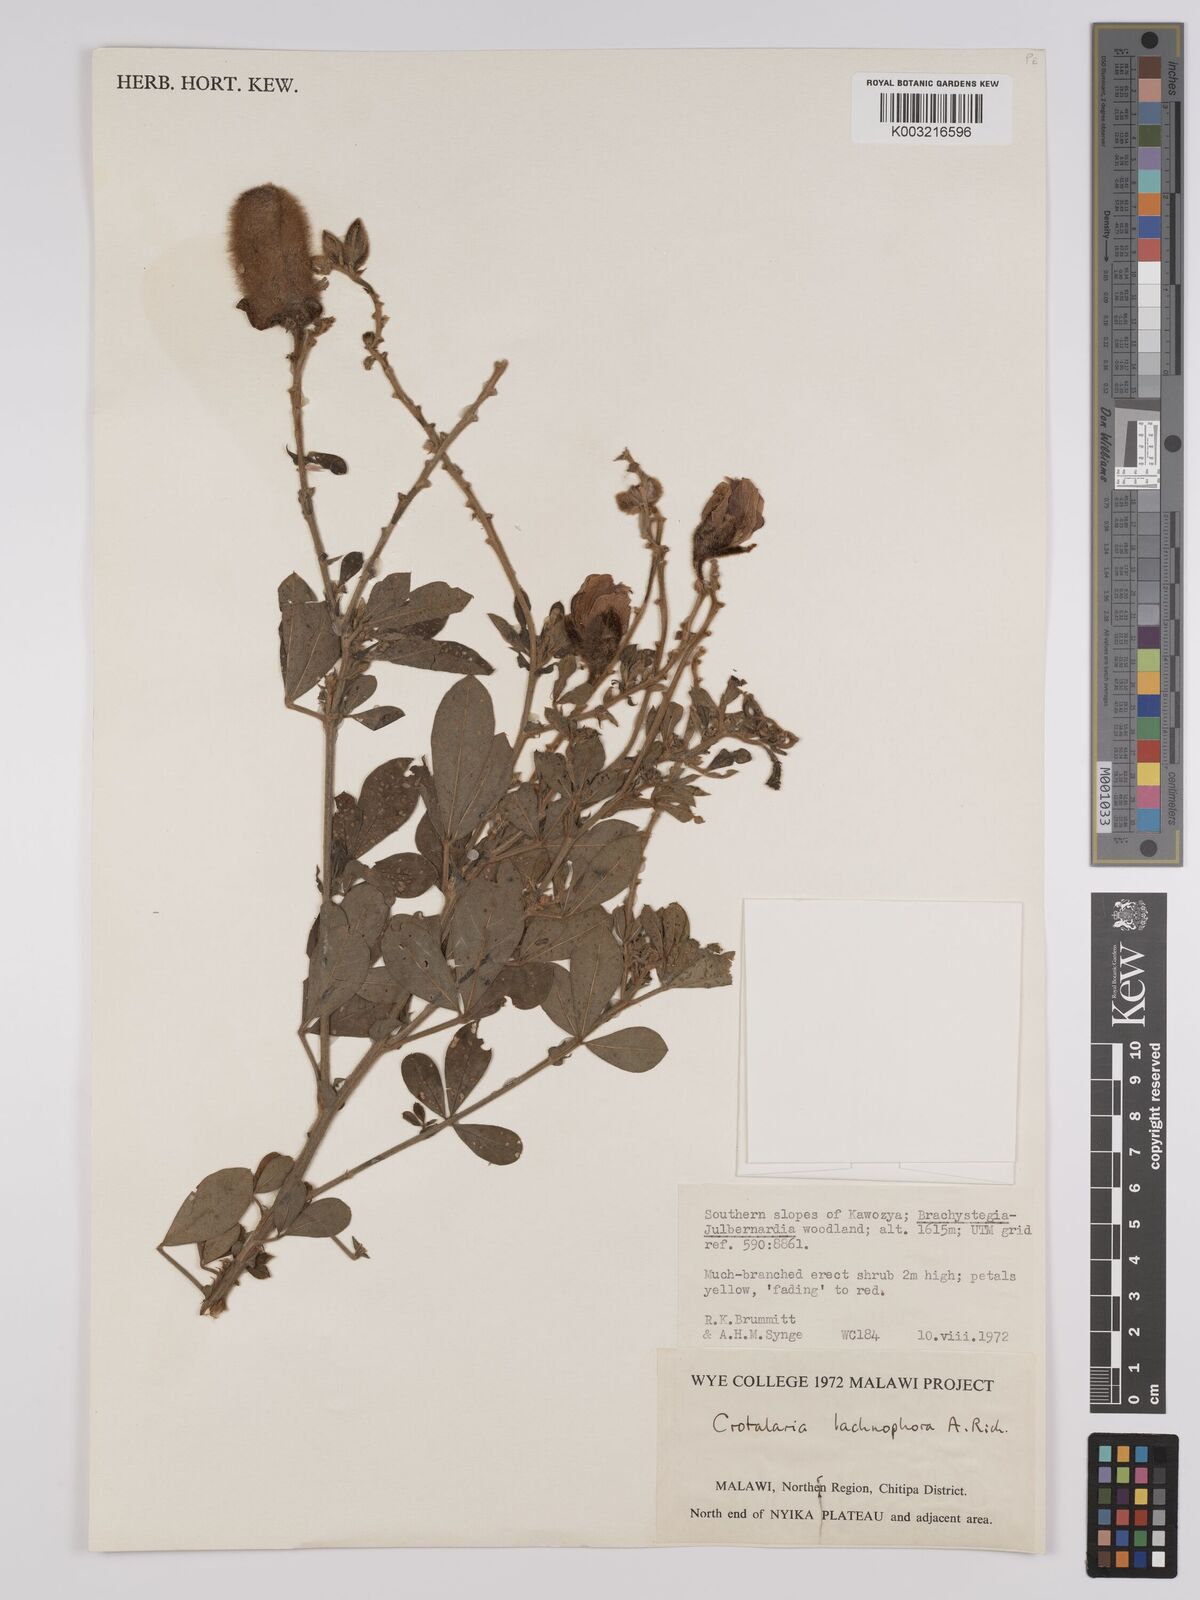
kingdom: Plantae
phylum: Tracheophyta
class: Magnoliopsida
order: Fabales
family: Fabaceae
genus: Crotalaria
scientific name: Crotalaria lachnophora
